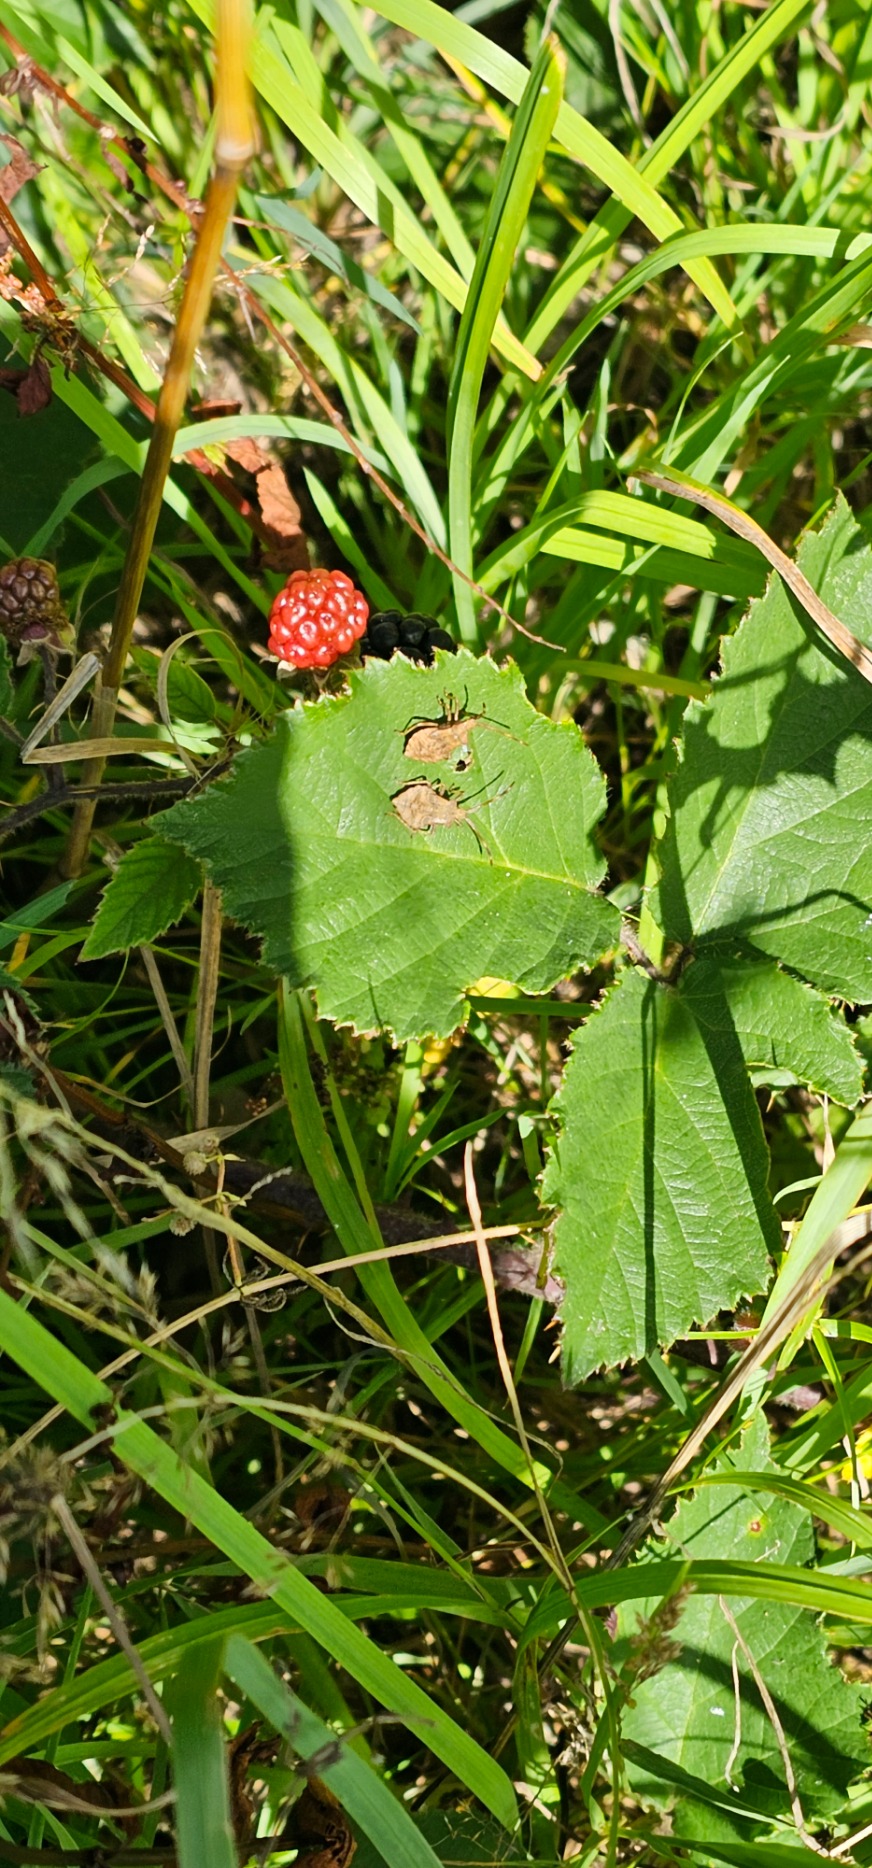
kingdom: Animalia
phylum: Arthropoda
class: Insecta
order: Hemiptera
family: Coreidae
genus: Coreus
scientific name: Coreus marginatus
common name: Skræppetæge
